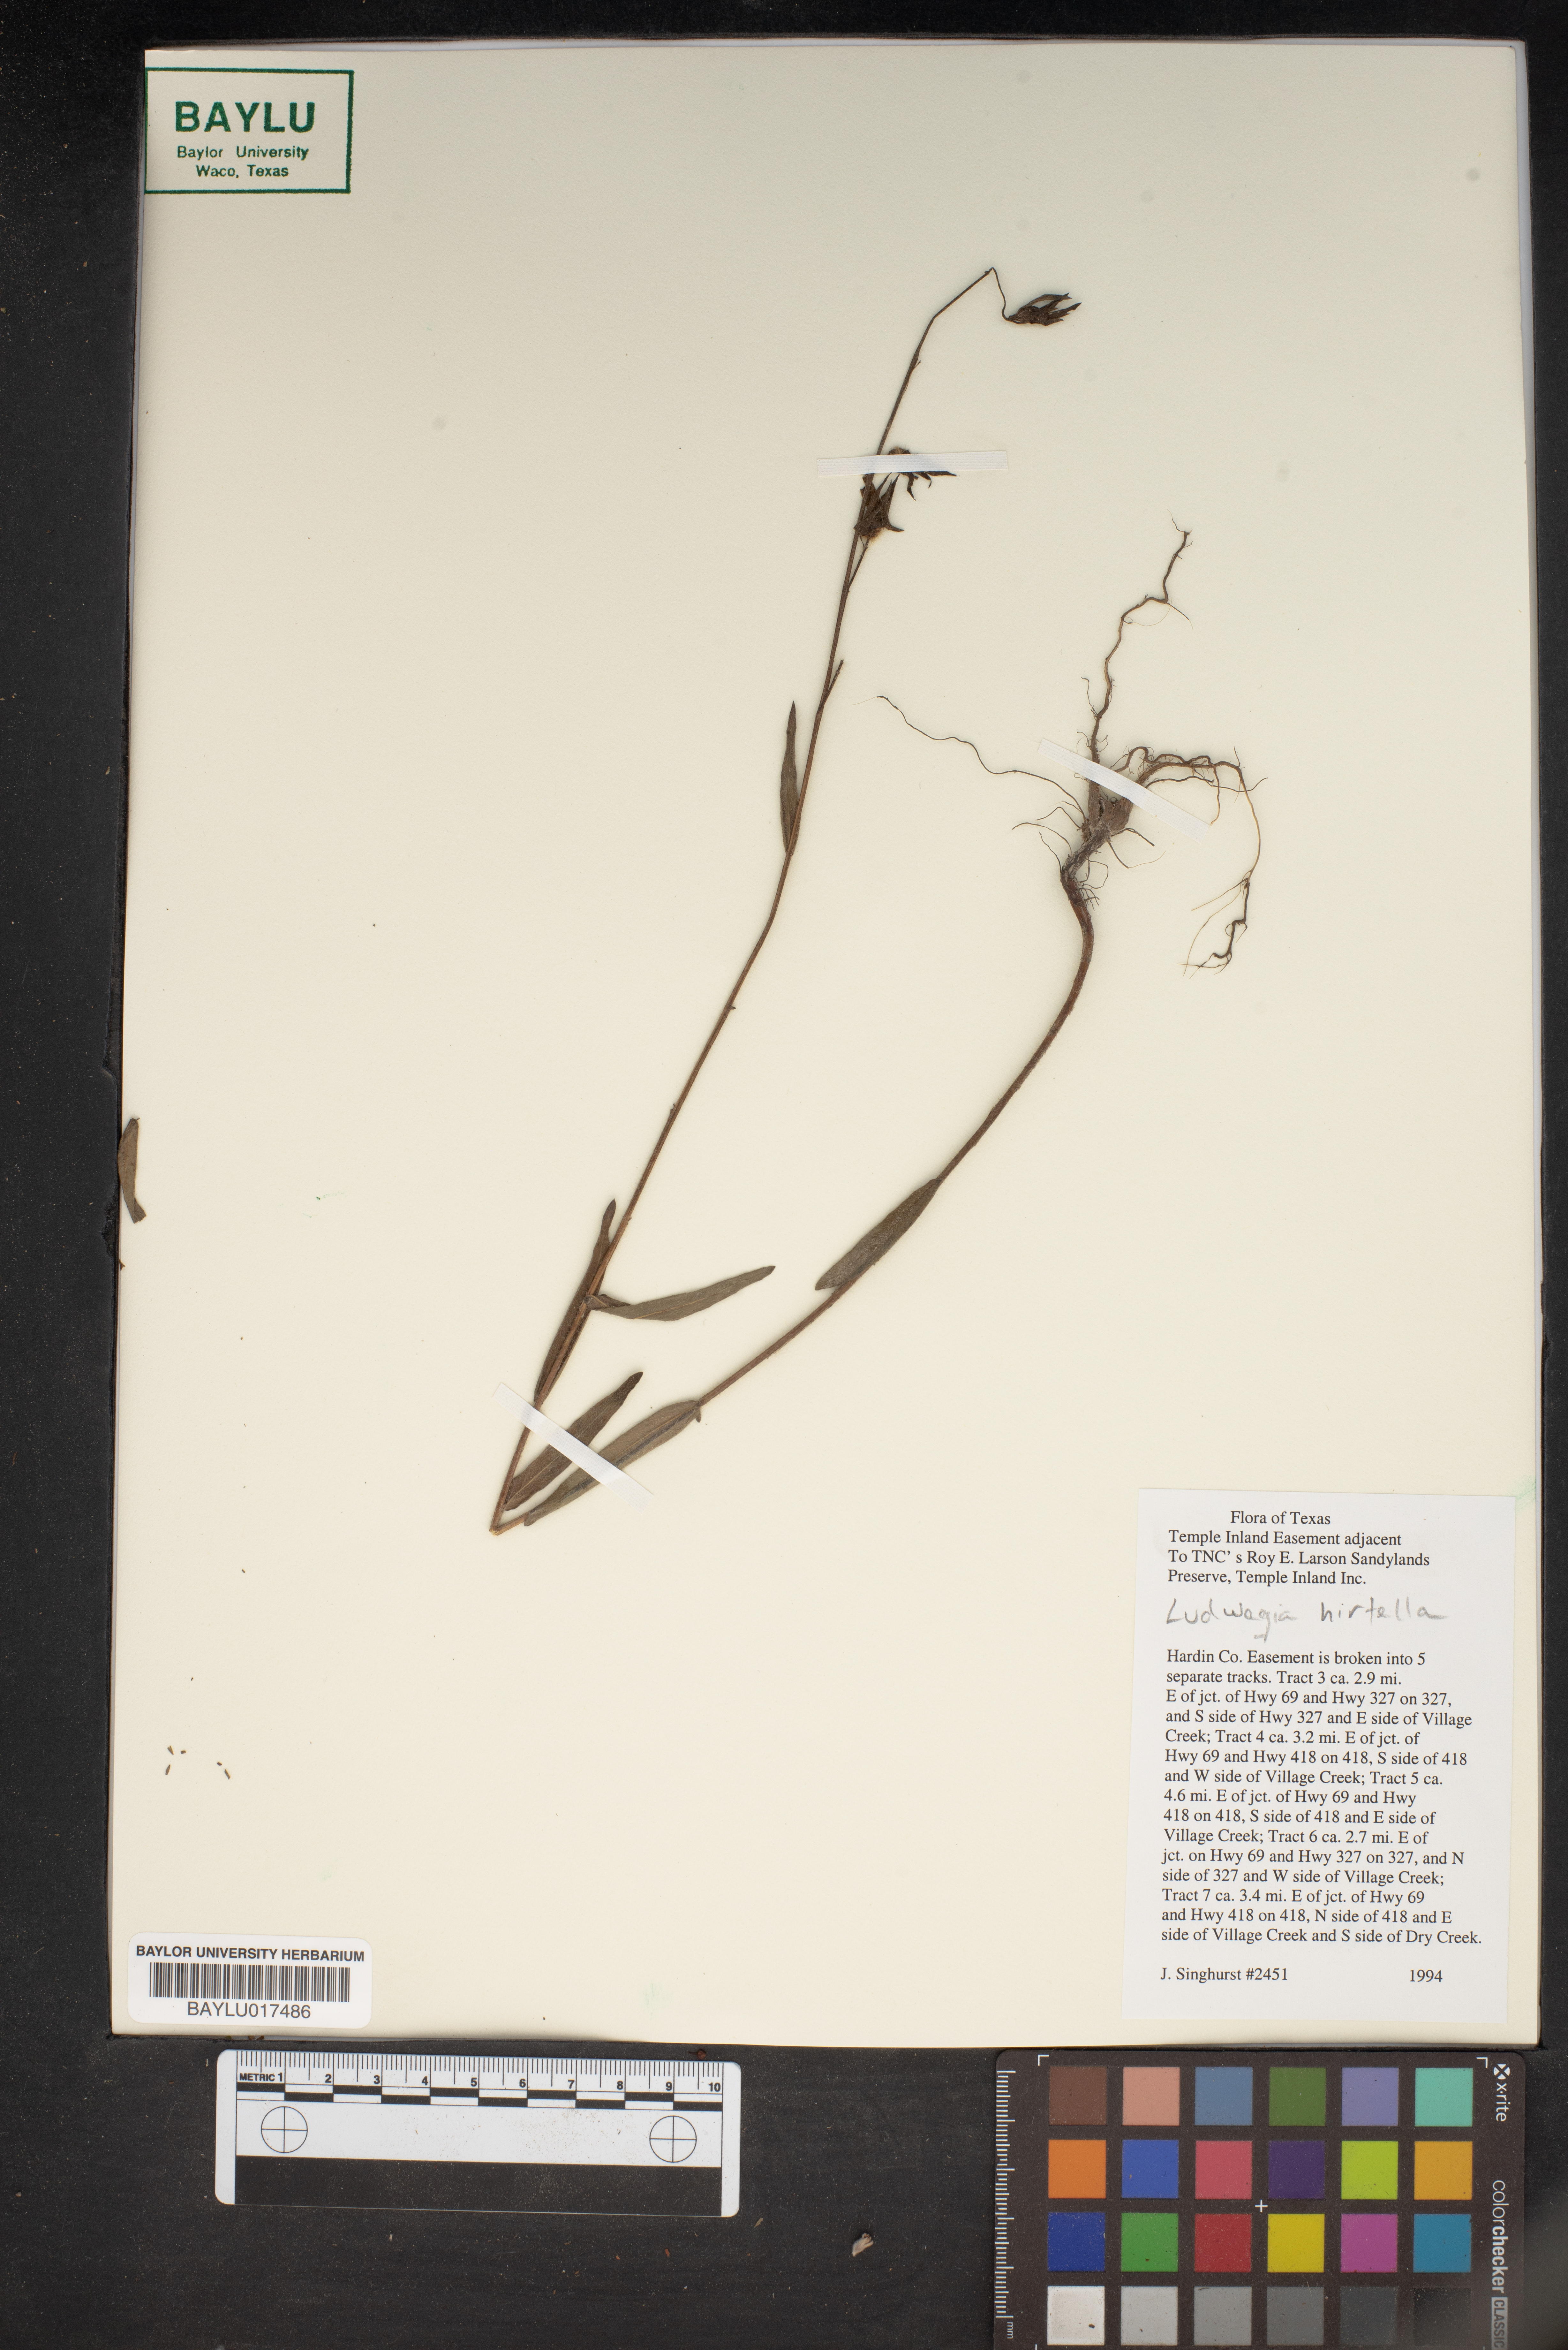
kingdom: Plantae
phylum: Tracheophyta
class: Magnoliopsida
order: Myrtales
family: Onagraceae
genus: Ludwigia
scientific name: Ludwigia hirtella
